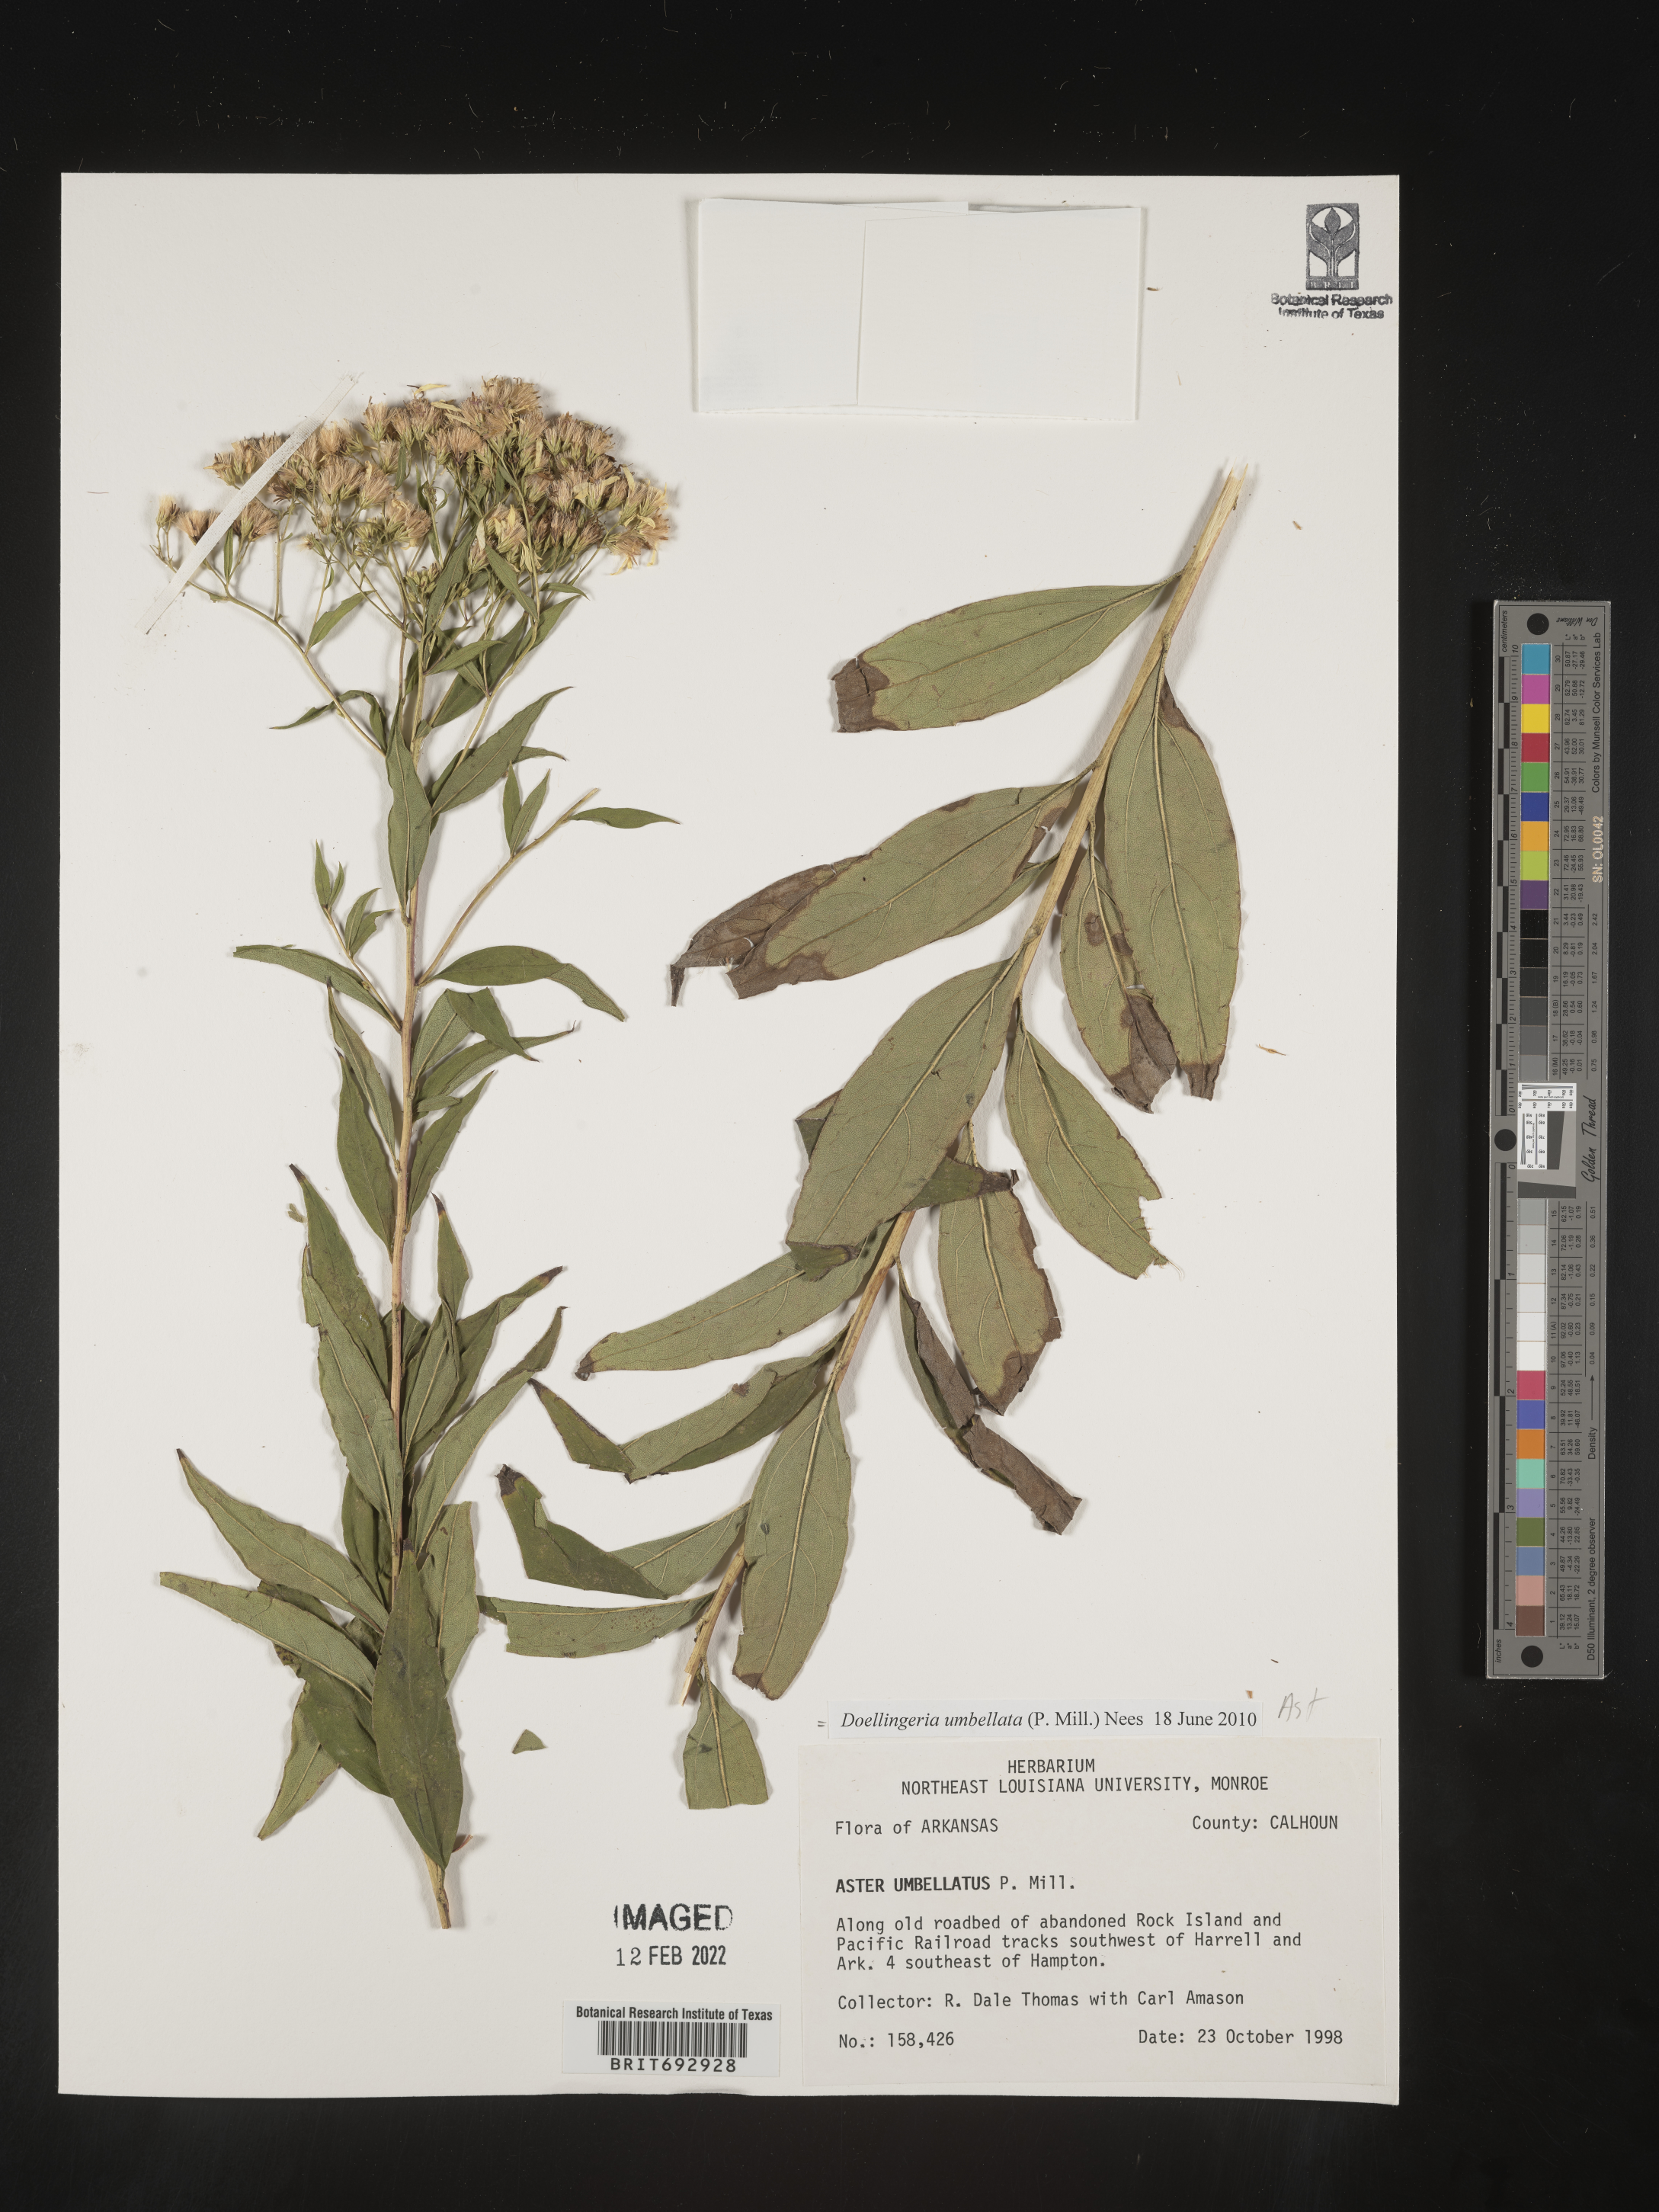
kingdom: Plantae
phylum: Tracheophyta
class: Magnoliopsida
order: Asterales
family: Asteraceae
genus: Doellingeria
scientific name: Doellingeria umbellata
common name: Flat-top white aster
